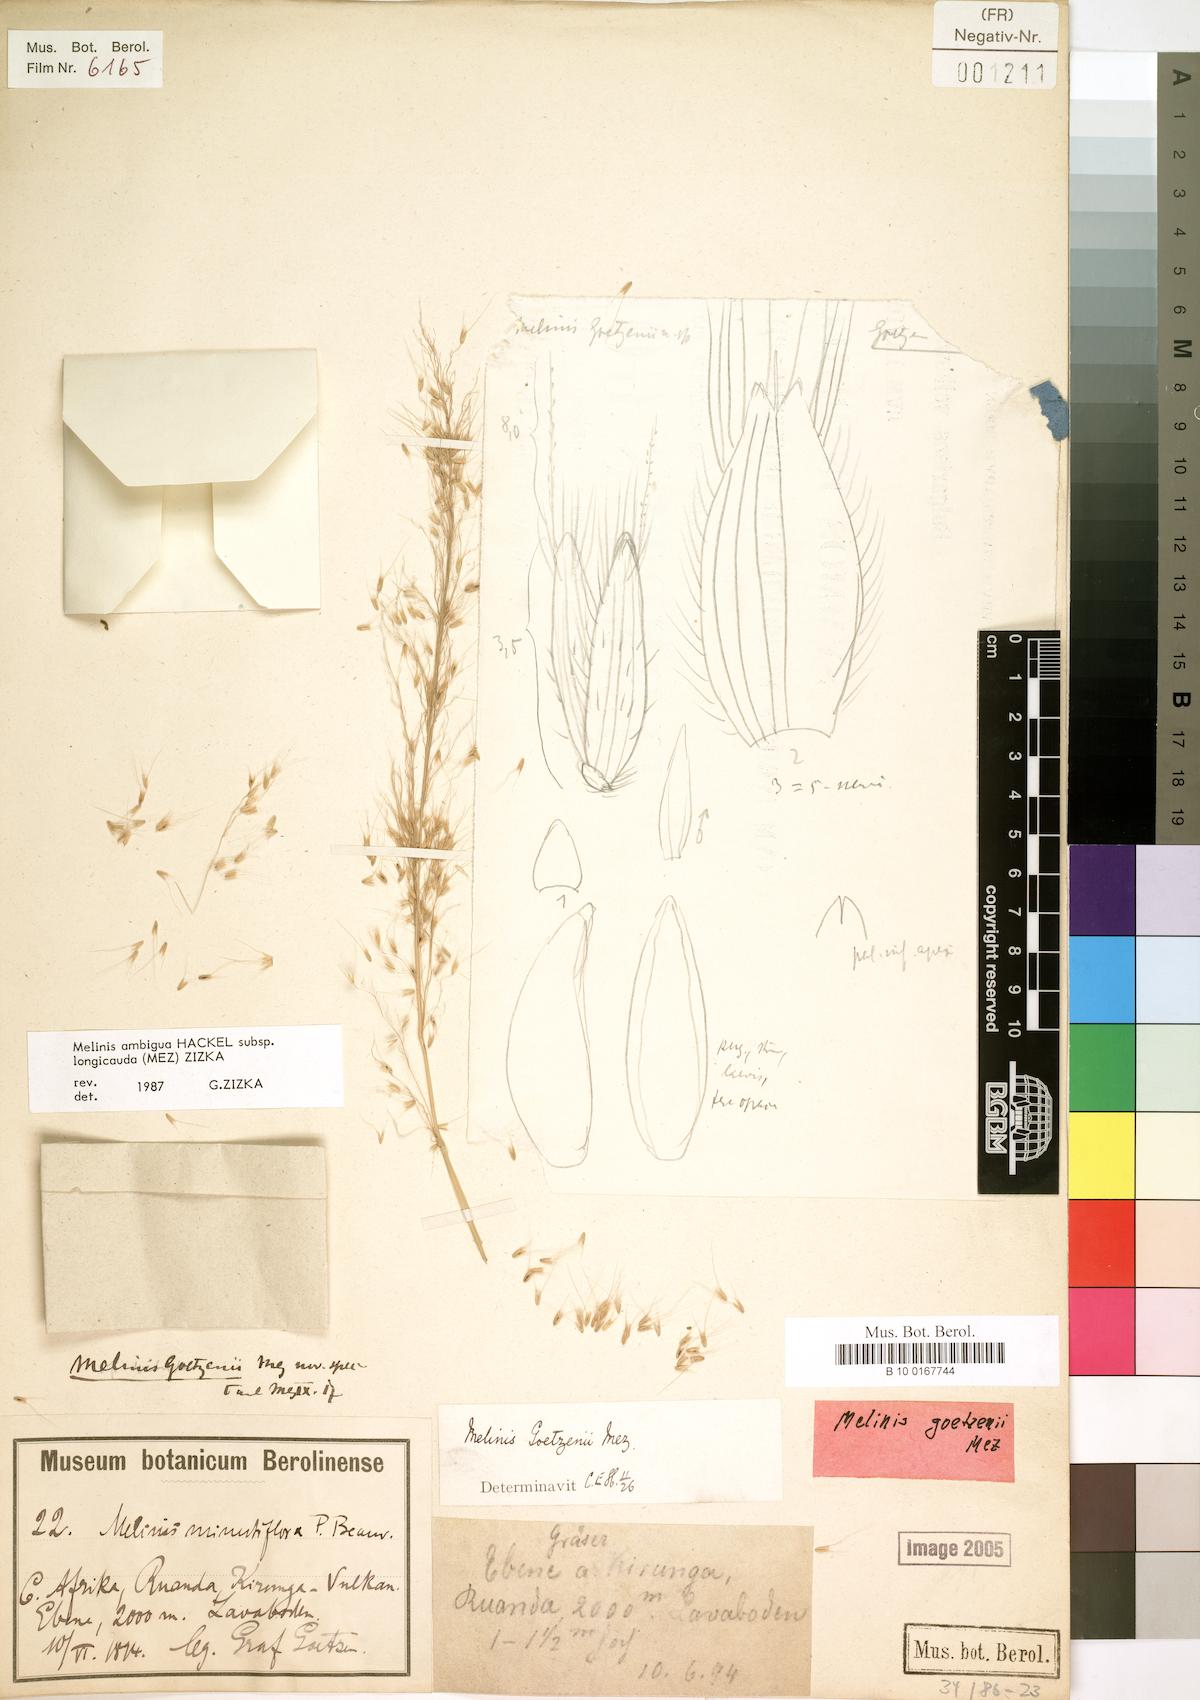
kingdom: Plantae
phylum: Tracheophyta
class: Liliopsida
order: Poales
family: Poaceae
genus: Melinis
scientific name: Melinis ambigua
